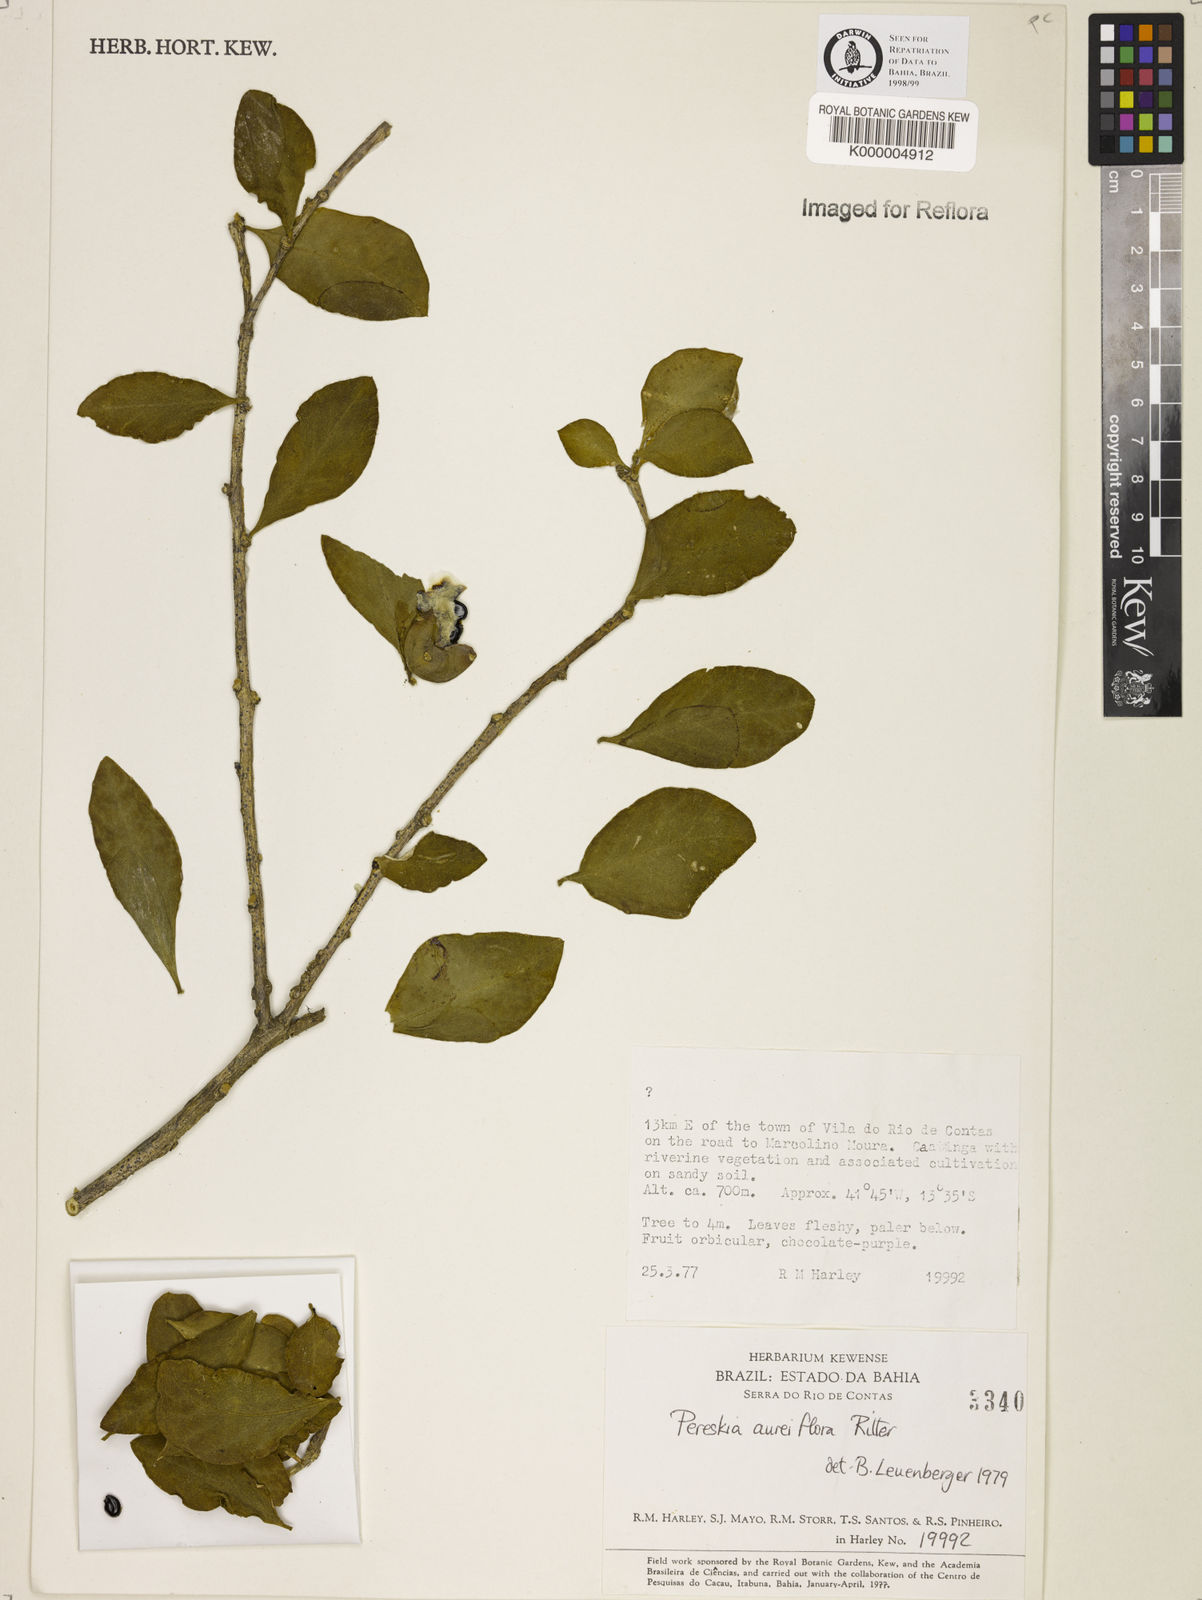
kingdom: Plantae
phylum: Tracheophyta
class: Magnoliopsida
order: Caryophyllales
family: Cactaceae
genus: Leuenbergeria
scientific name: Leuenbergeria aureiflora
